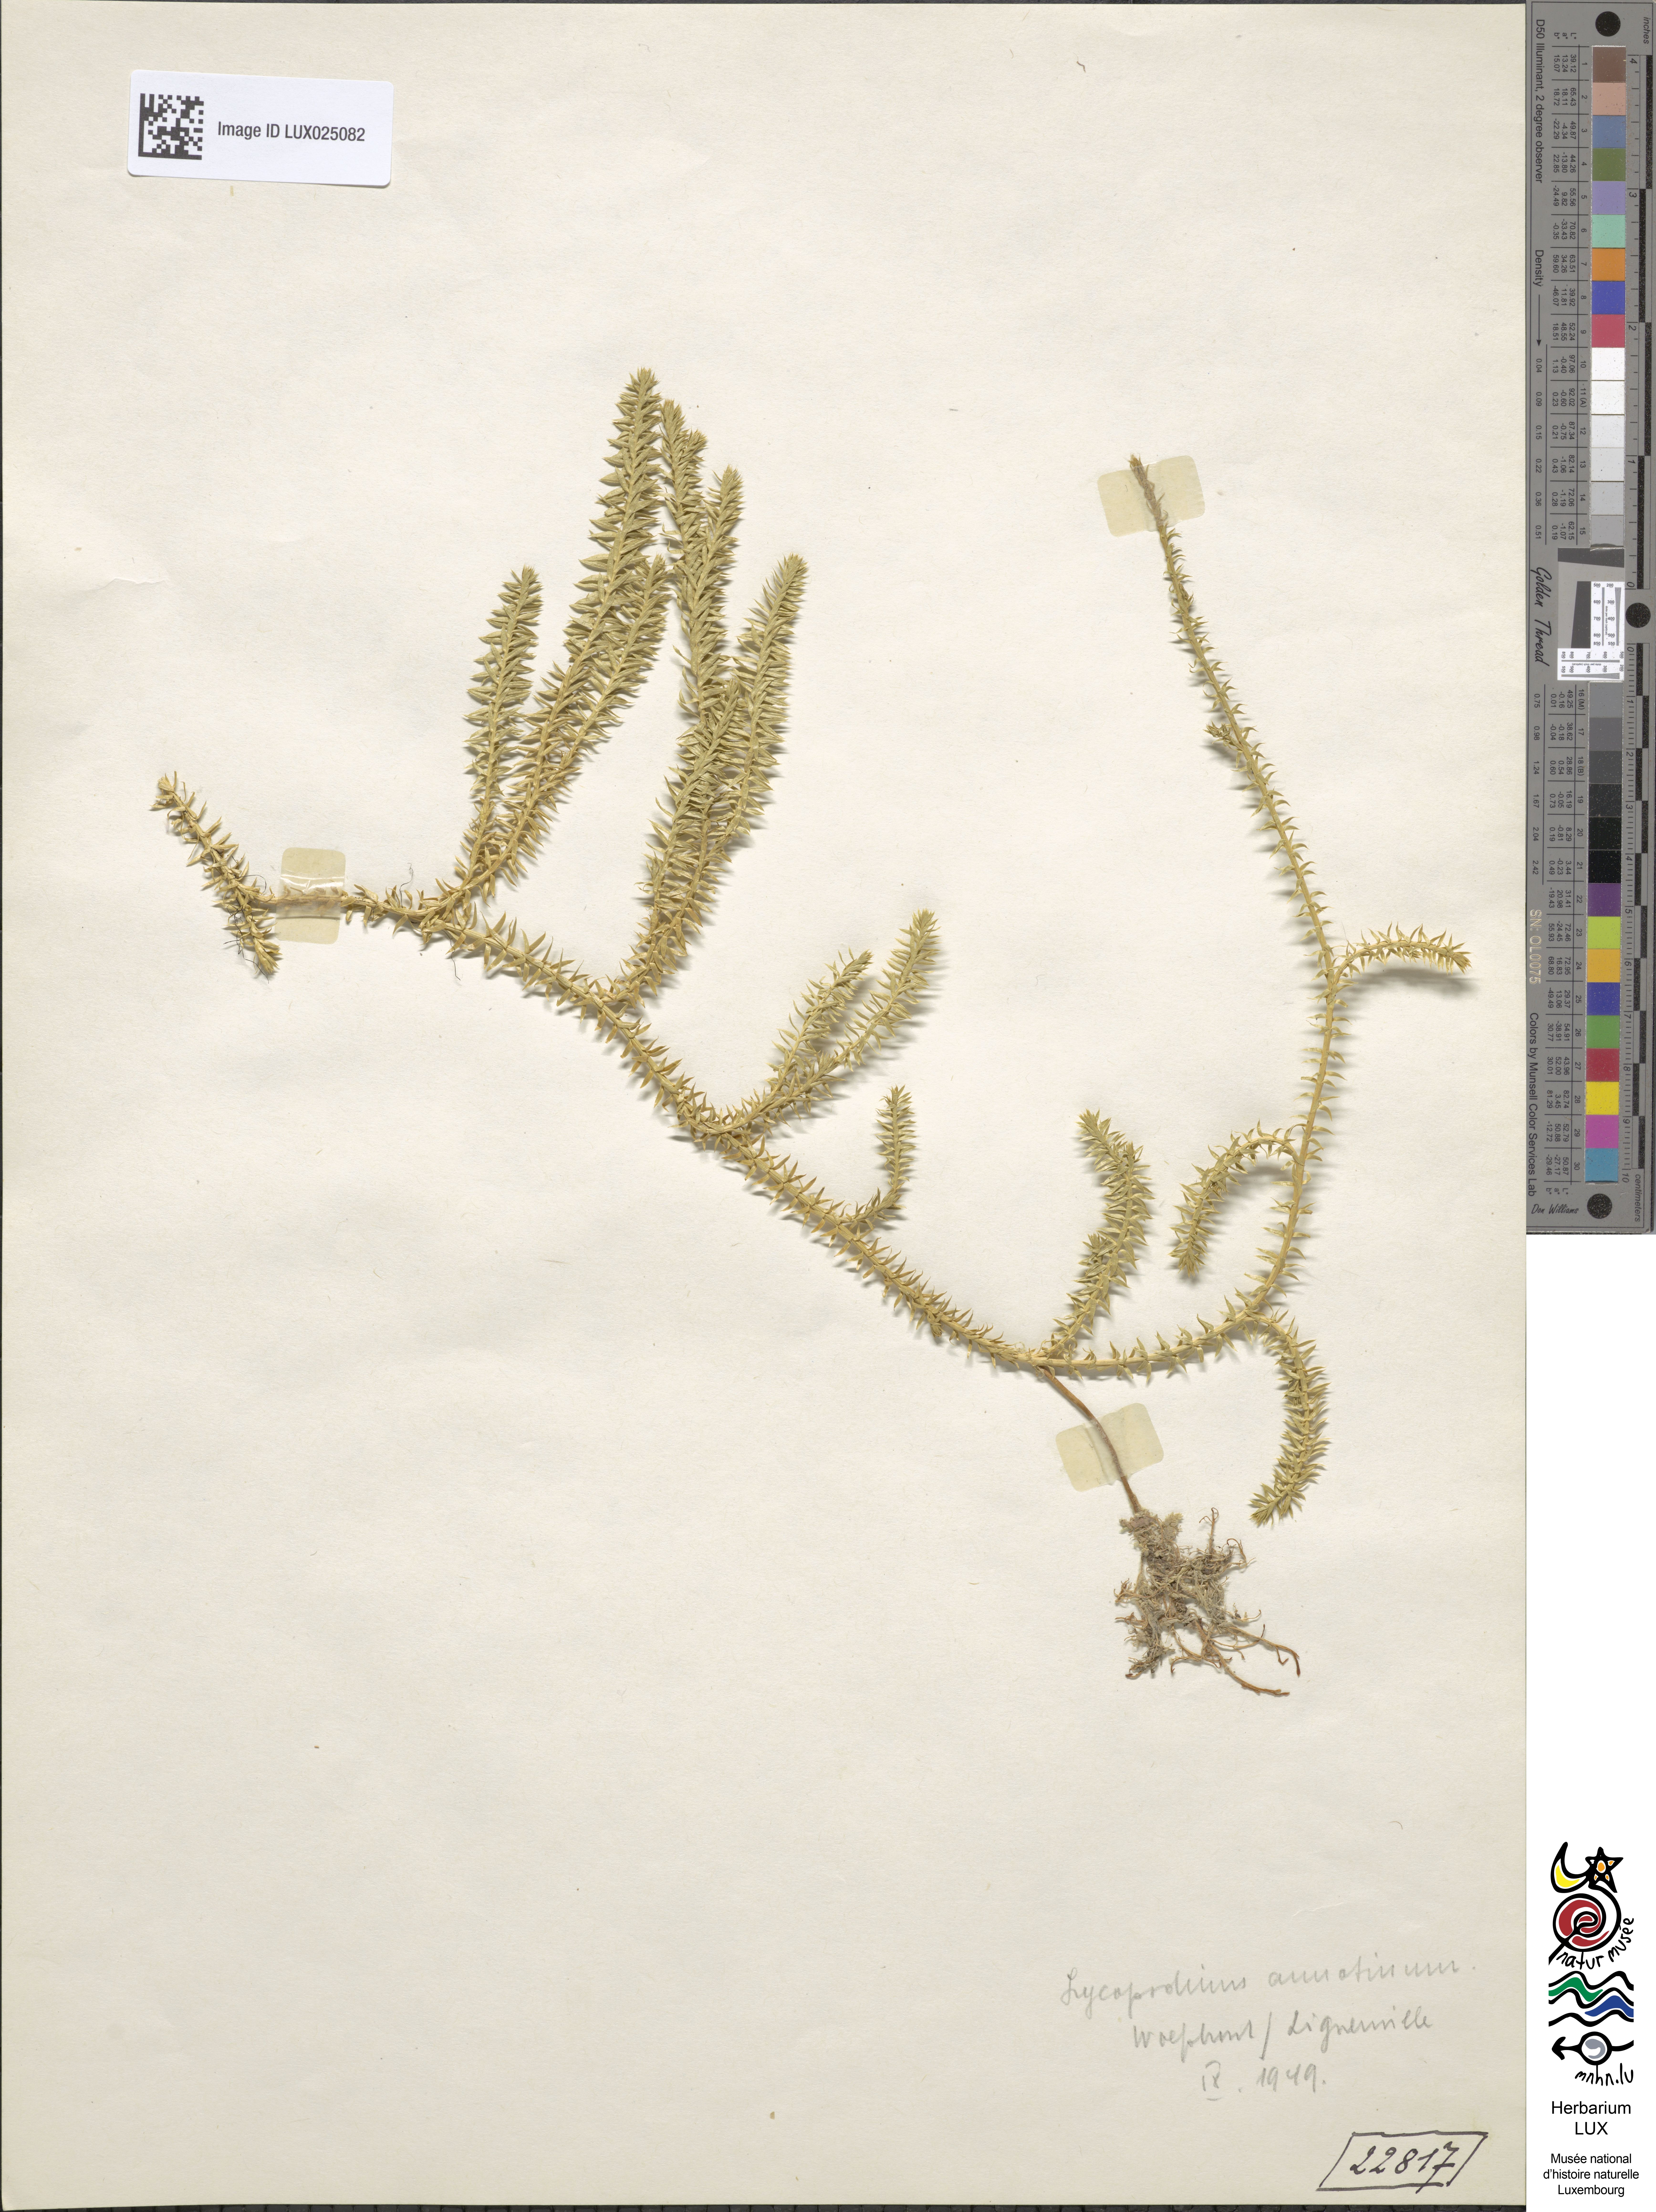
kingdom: Plantae
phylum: Tracheophyta
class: Lycopodiopsida
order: Lycopodiales
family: Lycopodiaceae
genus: Spinulum
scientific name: Spinulum annotinum
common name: Interrupted club-moss
